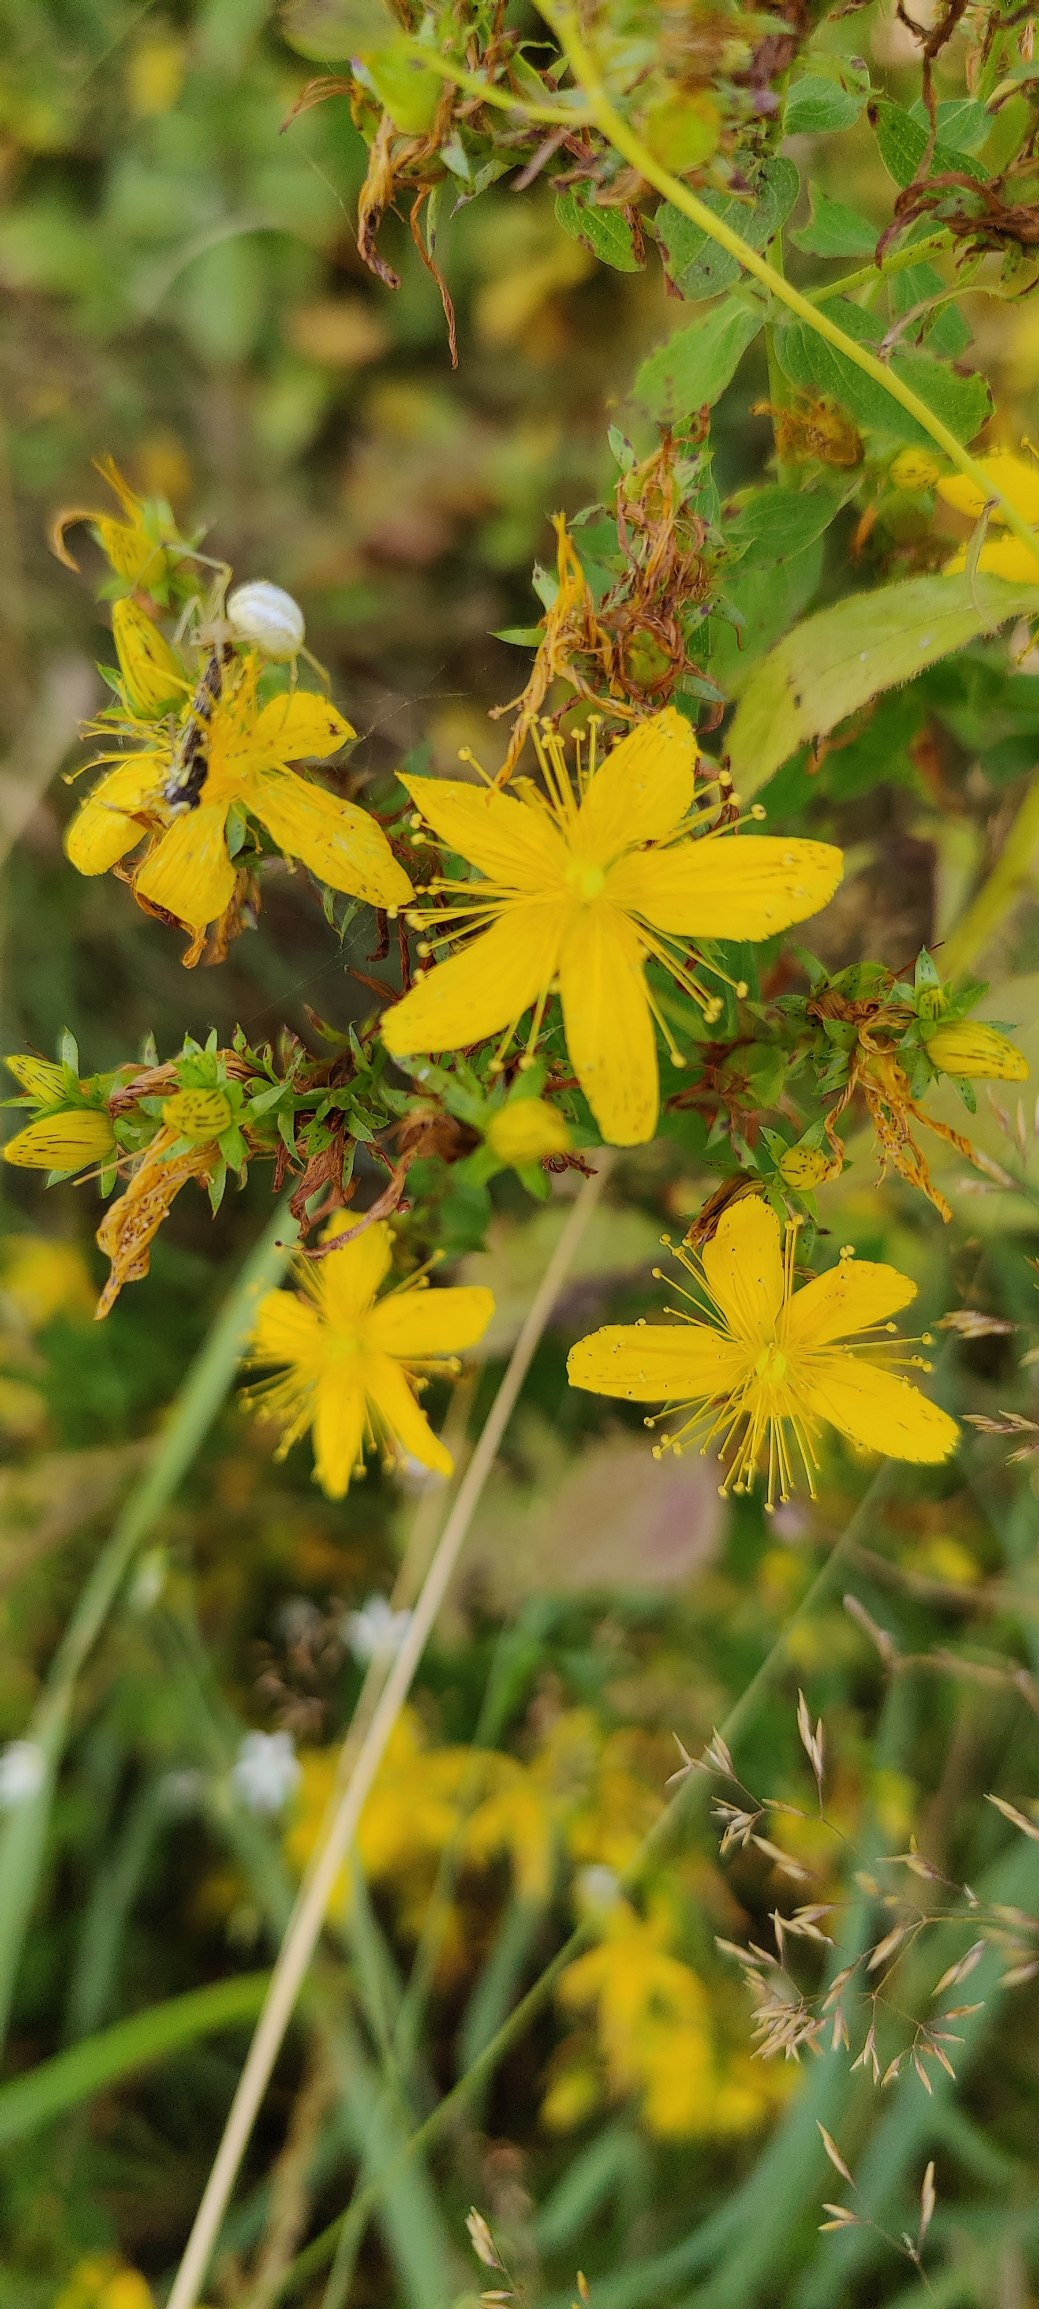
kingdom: Plantae
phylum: Tracheophyta
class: Magnoliopsida
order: Malpighiales
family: Hypericaceae
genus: Hypericum
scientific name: Hypericum perforatum
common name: Prikbladet perikon
